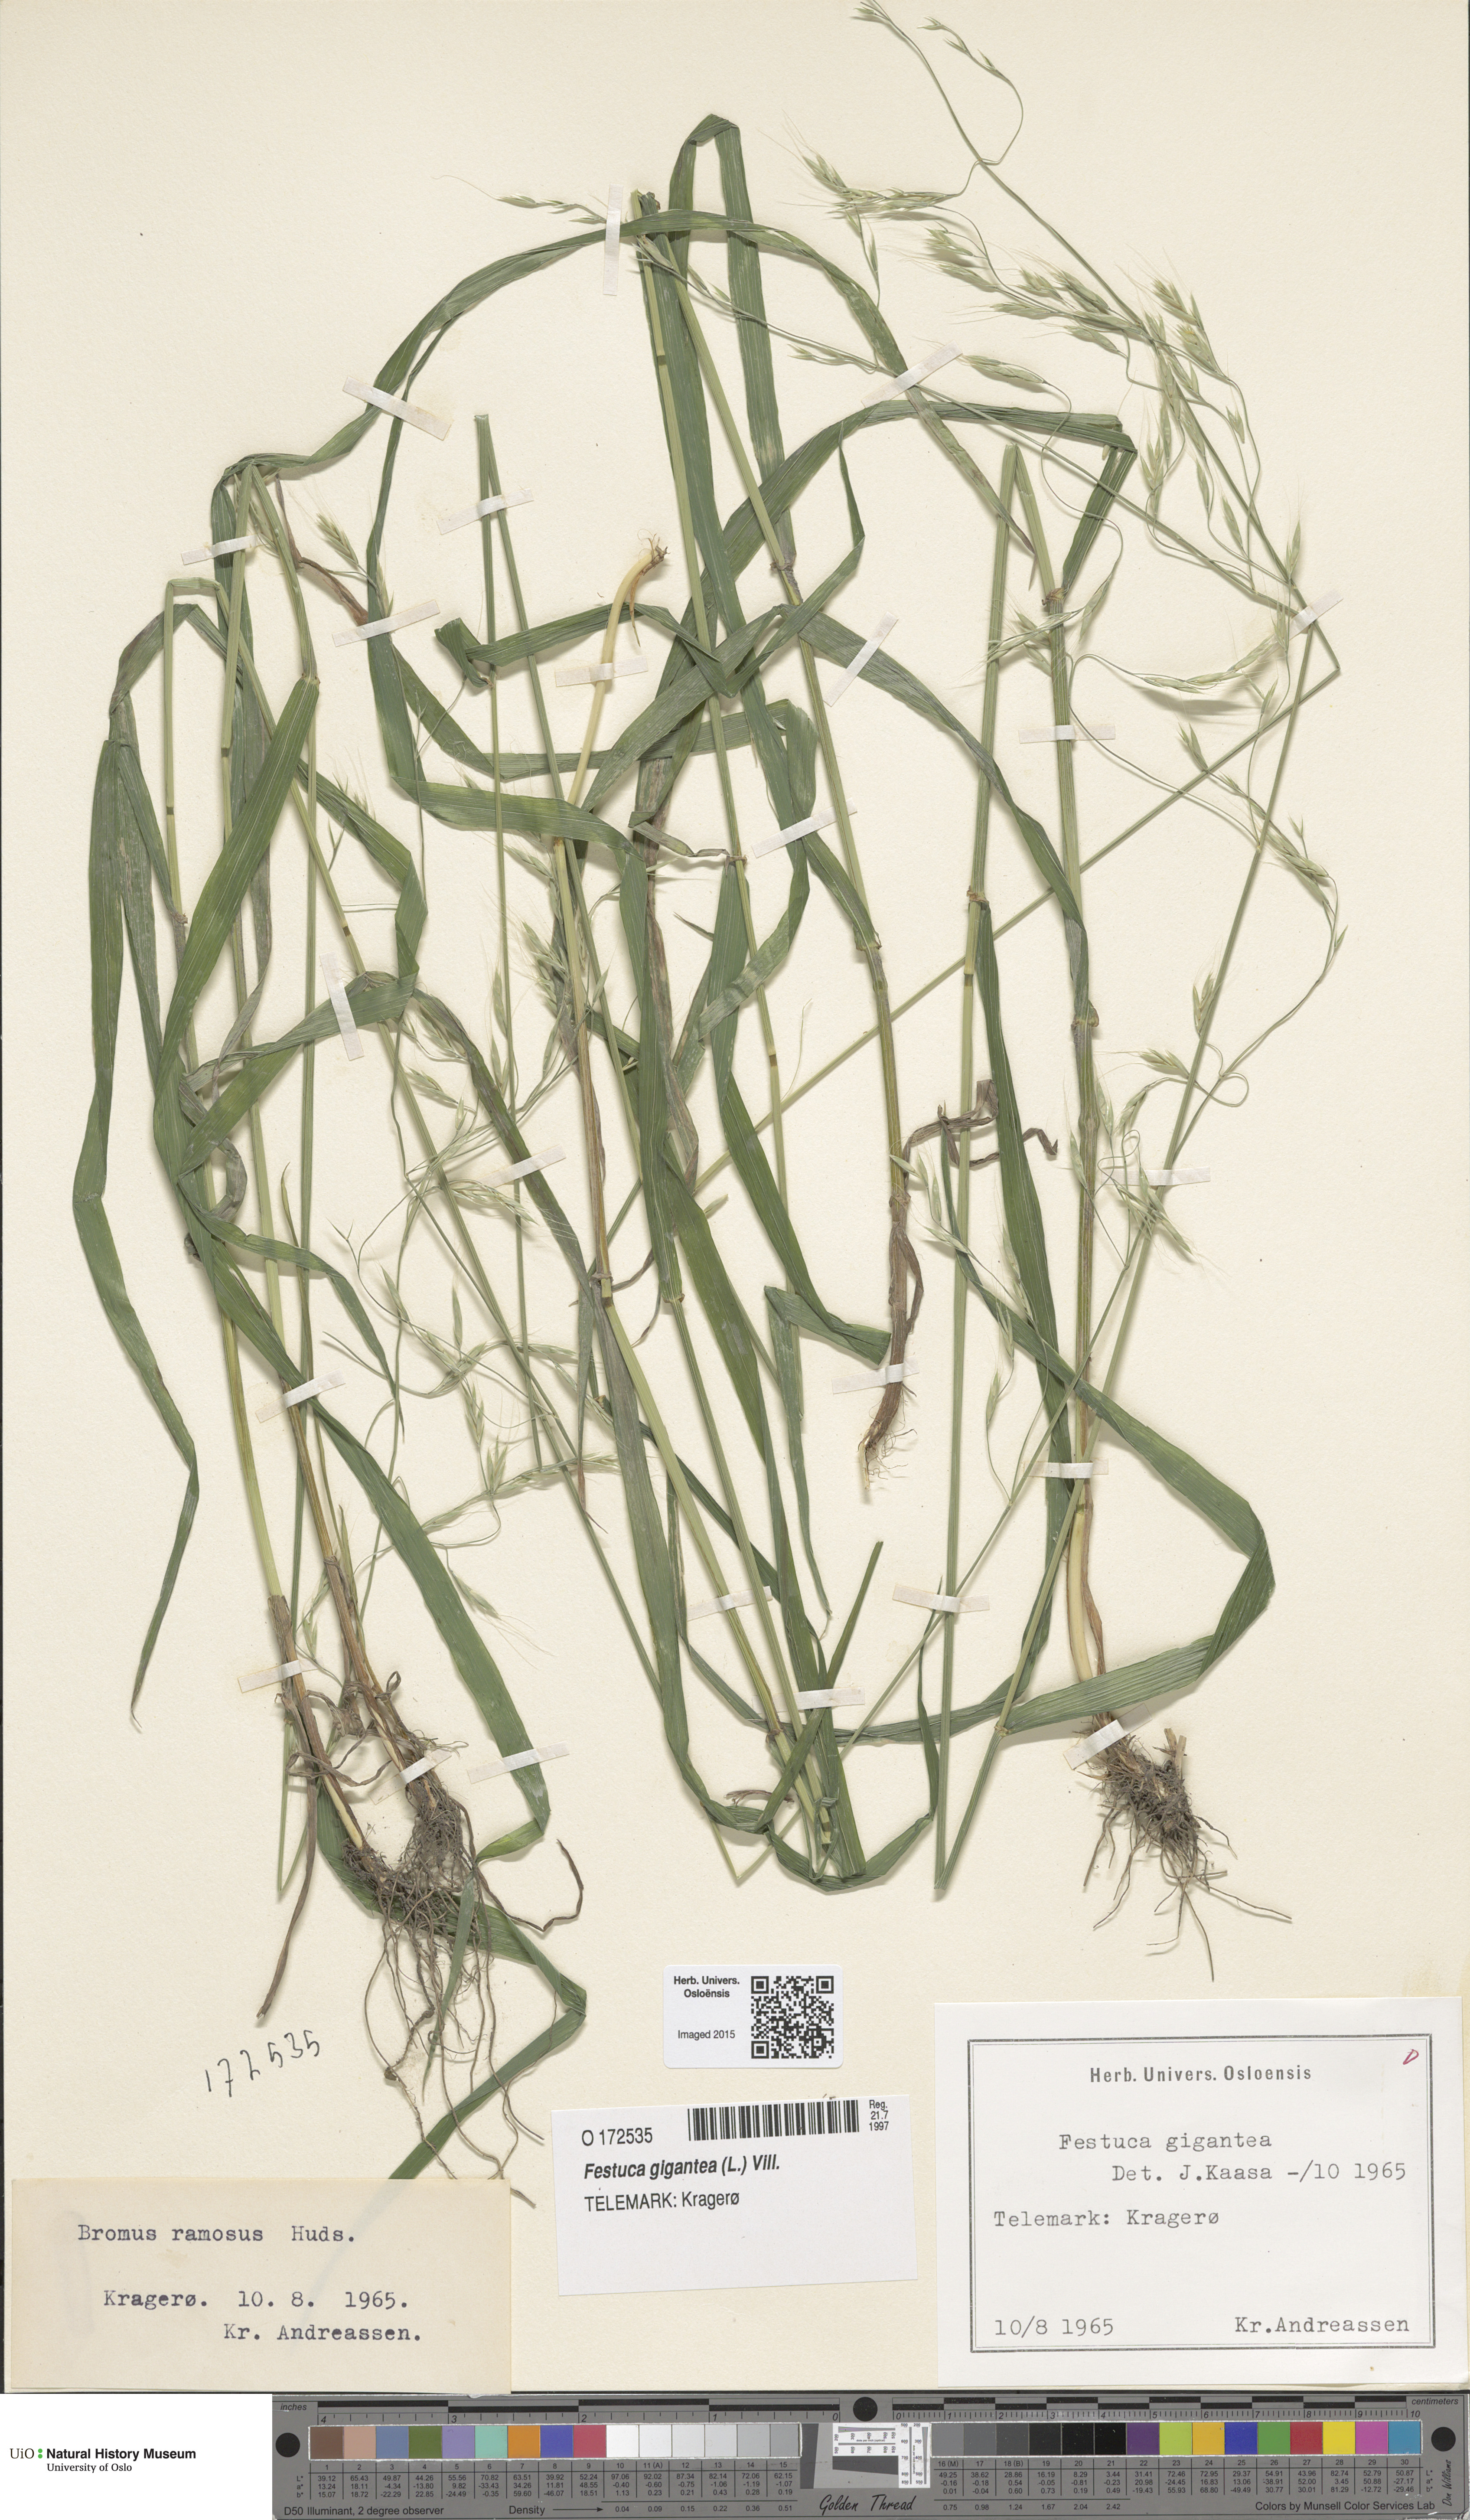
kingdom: Plantae
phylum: Tracheophyta
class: Liliopsida
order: Poales
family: Poaceae
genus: Lolium
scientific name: Lolium giganteum
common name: Giant fescue
